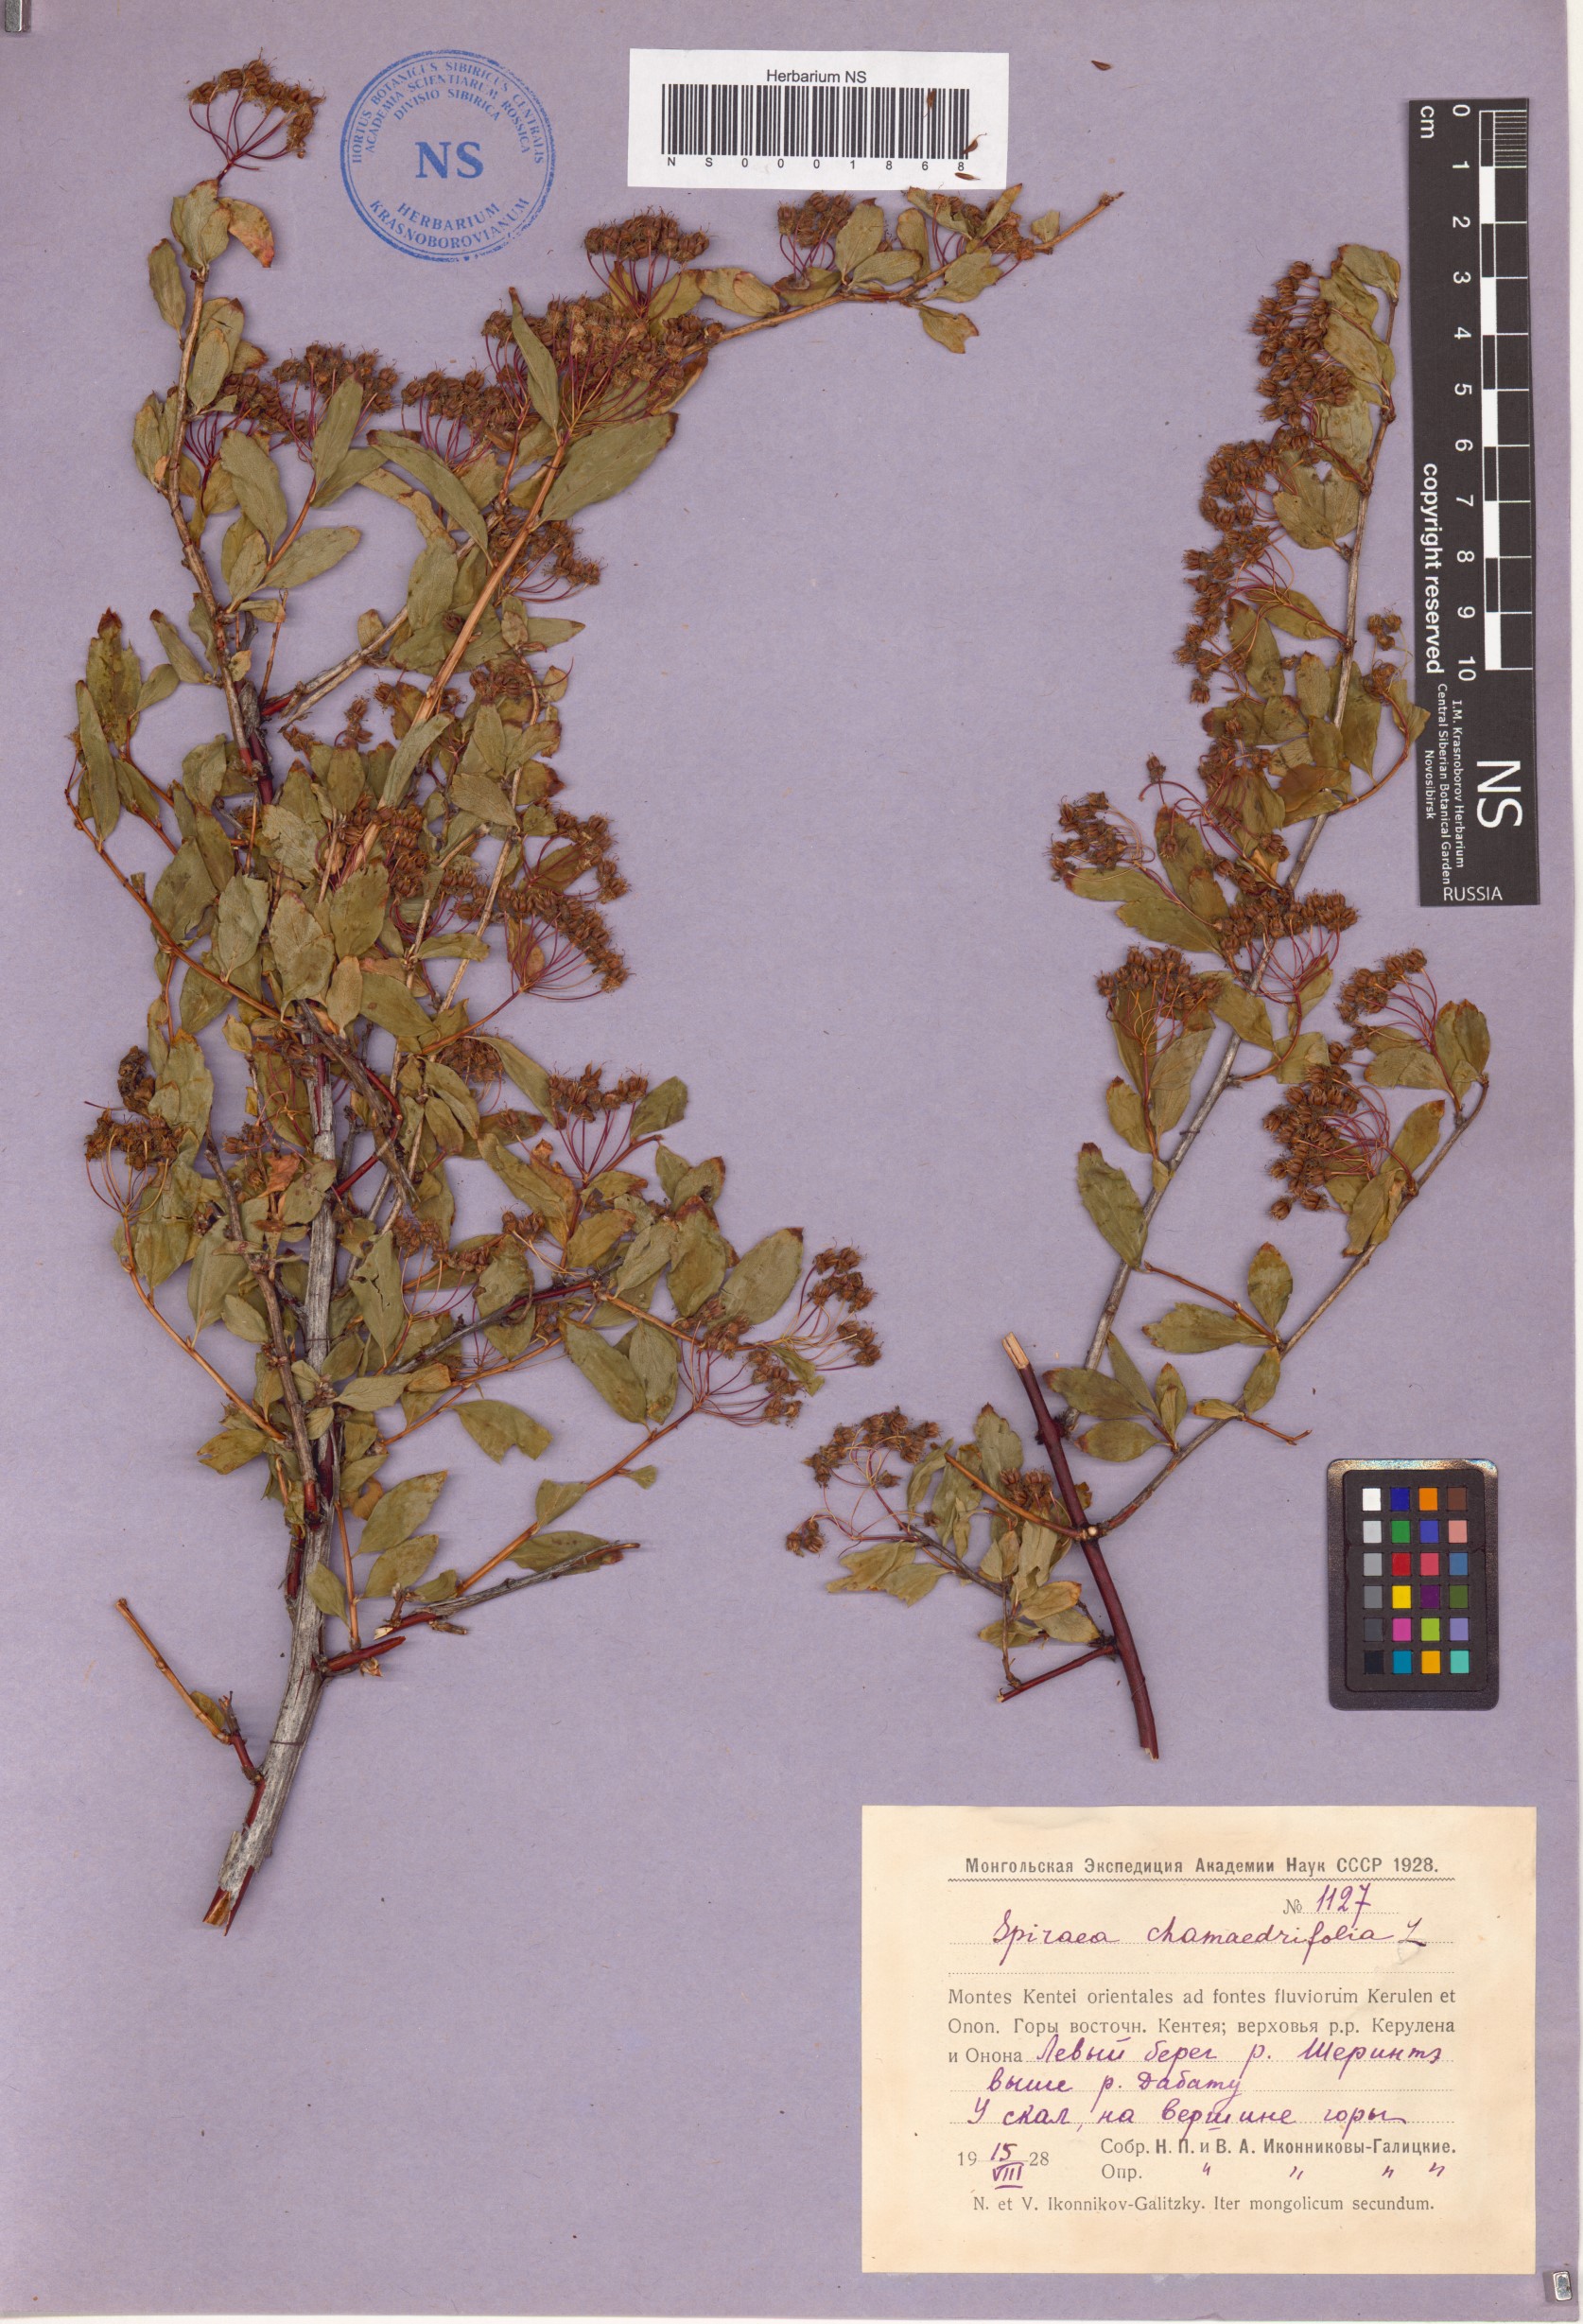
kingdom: Plantae
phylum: Tracheophyta
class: Magnoliopsida
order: Rosales
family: Rosaceae
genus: Spiraea
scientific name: Spiraea chamaedryfolia
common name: Elm-leaved spiraea
